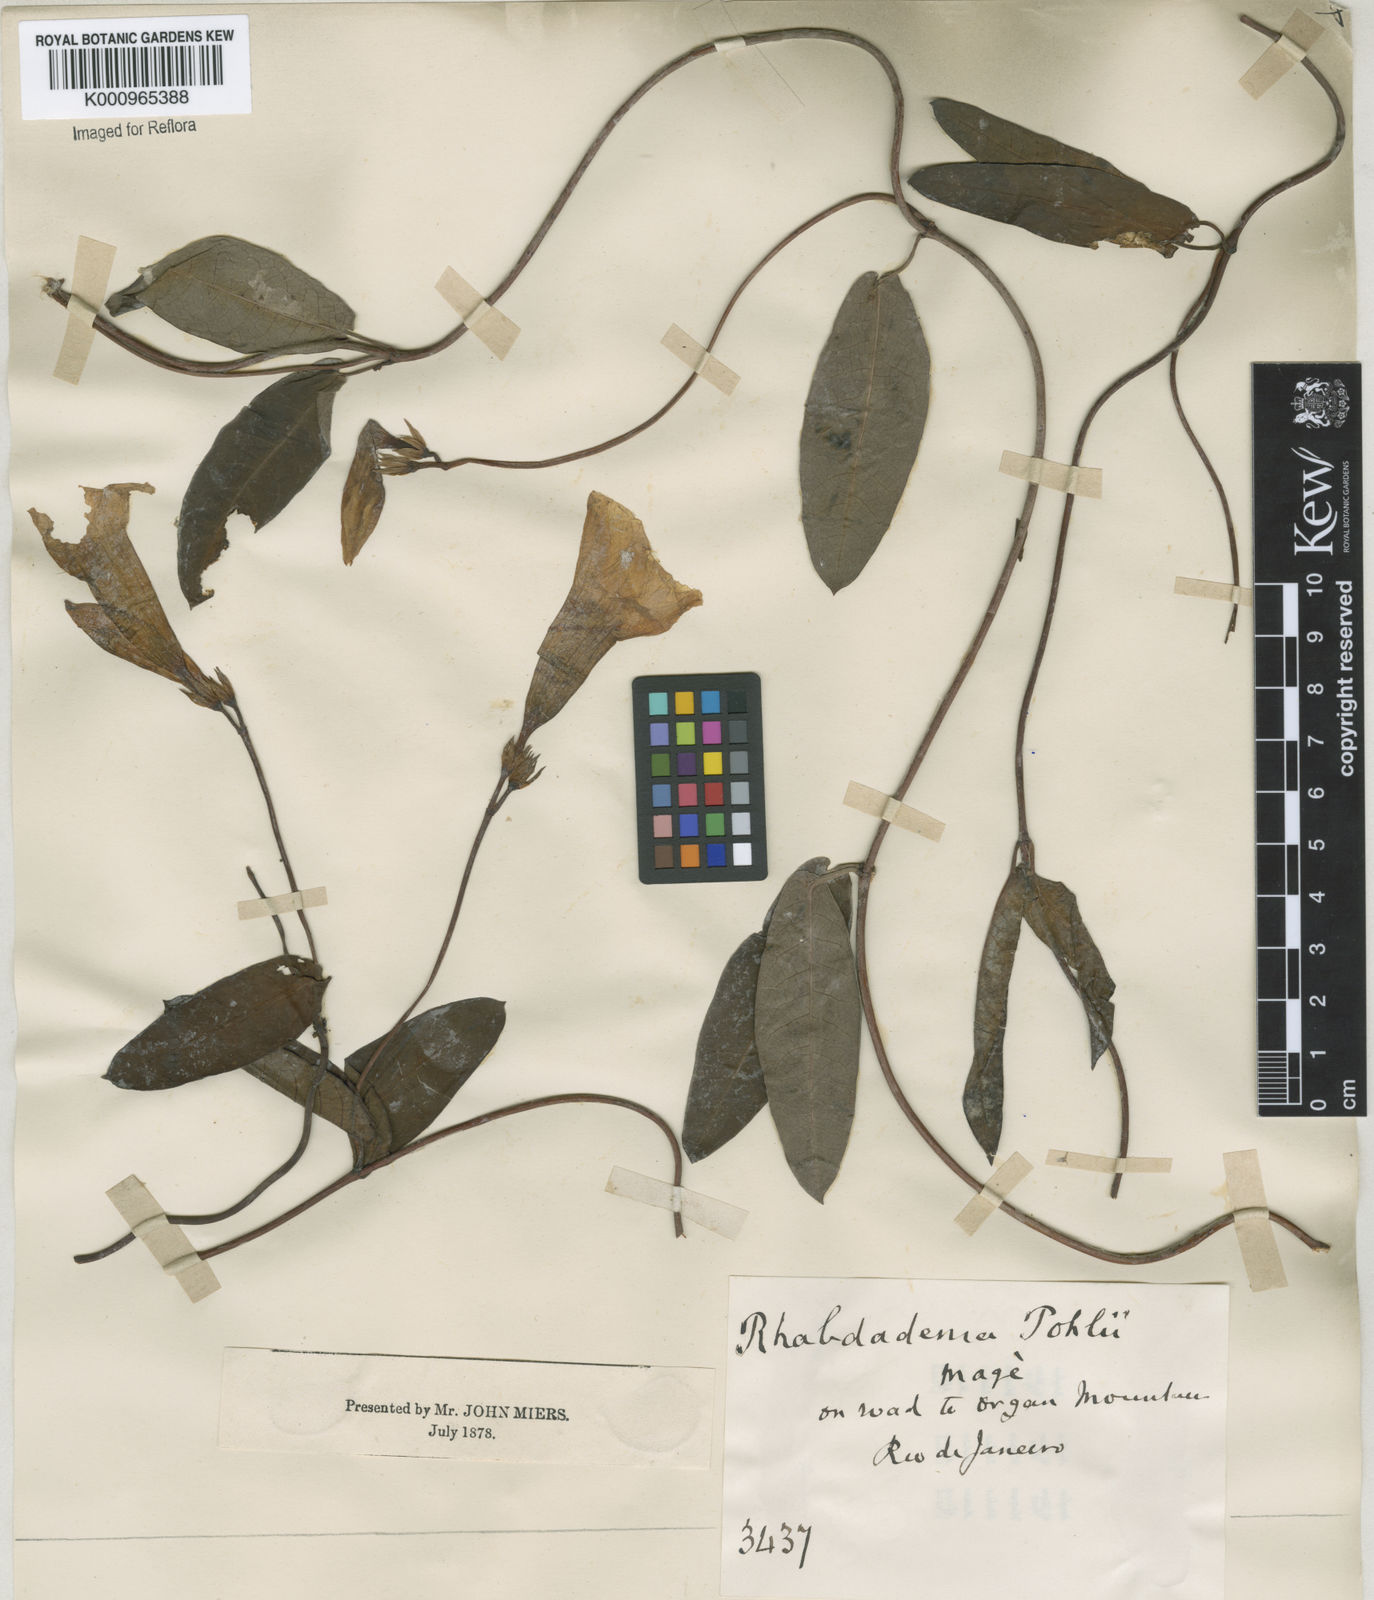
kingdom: Plantae
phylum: Tracheophyta
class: Magnoliopsida
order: Gentianales
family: Apocynaceae
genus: Rhabdadenia
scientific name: Rhabdadenia madida
